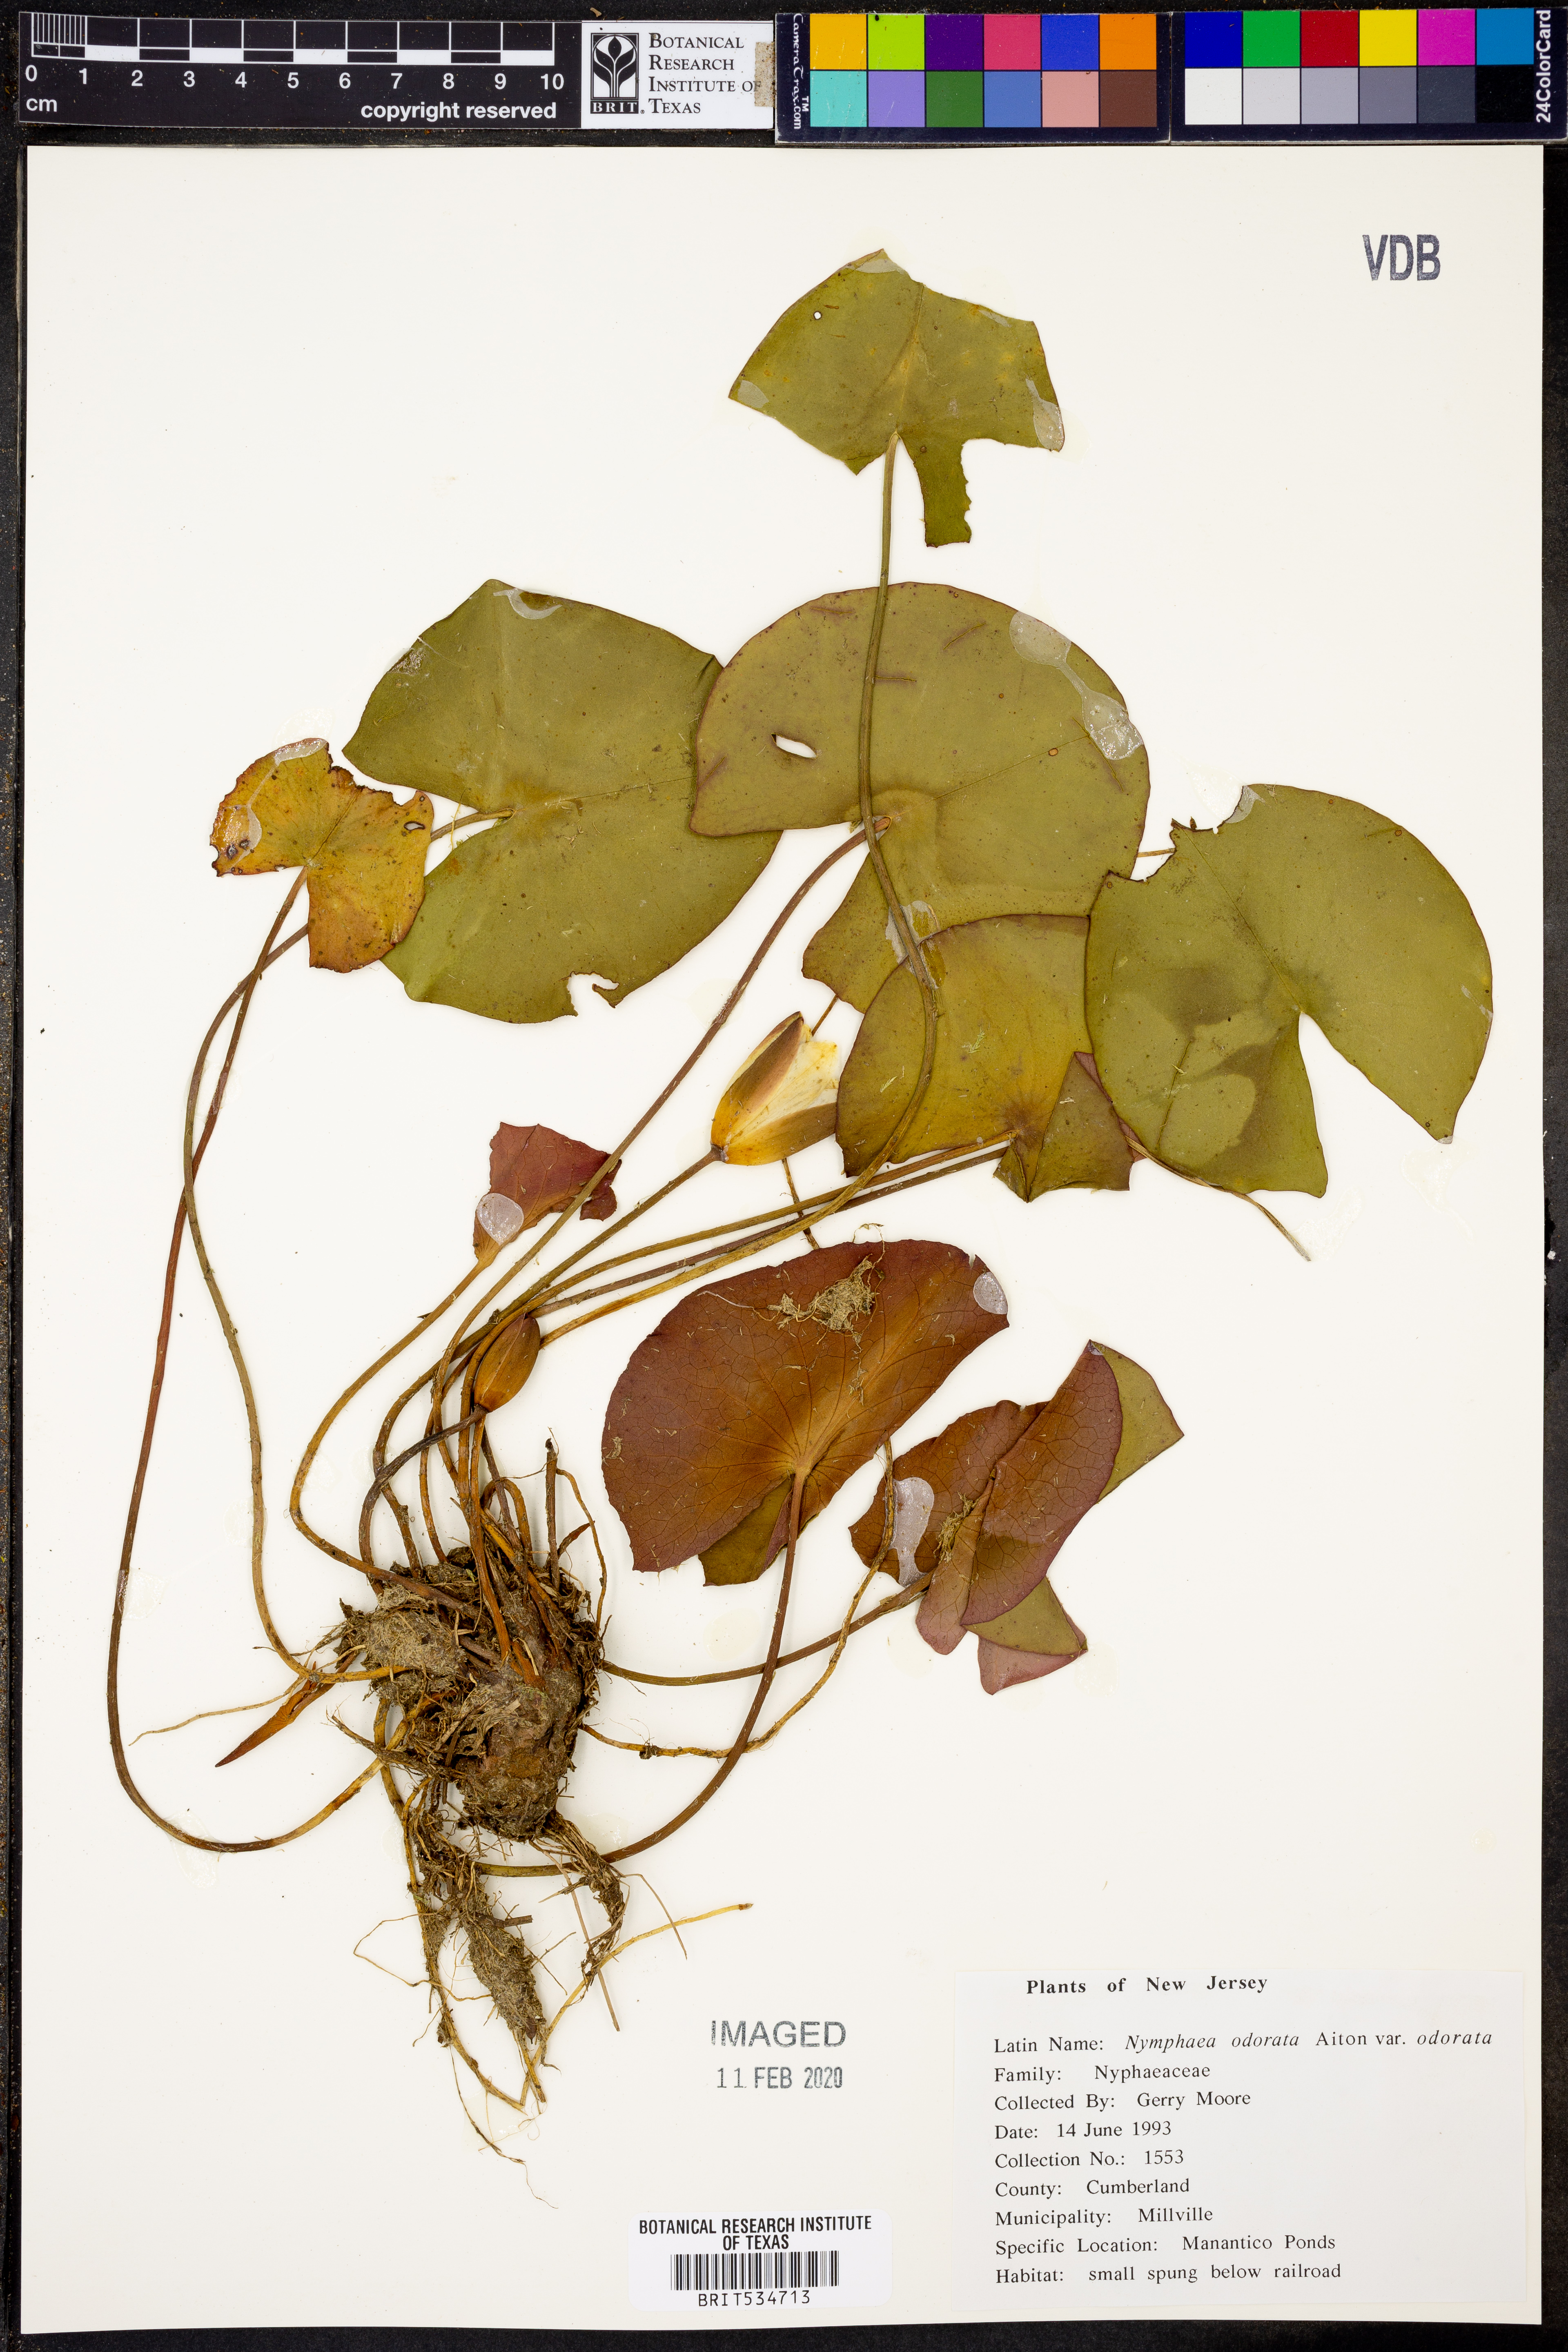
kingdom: Plantae
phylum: Tracheophyta
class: Magnoliopsida
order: Nymphaeales
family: Nymphaeaceae
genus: Nymphaea
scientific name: Nymphaea odorata
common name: Fragrant water-lily
